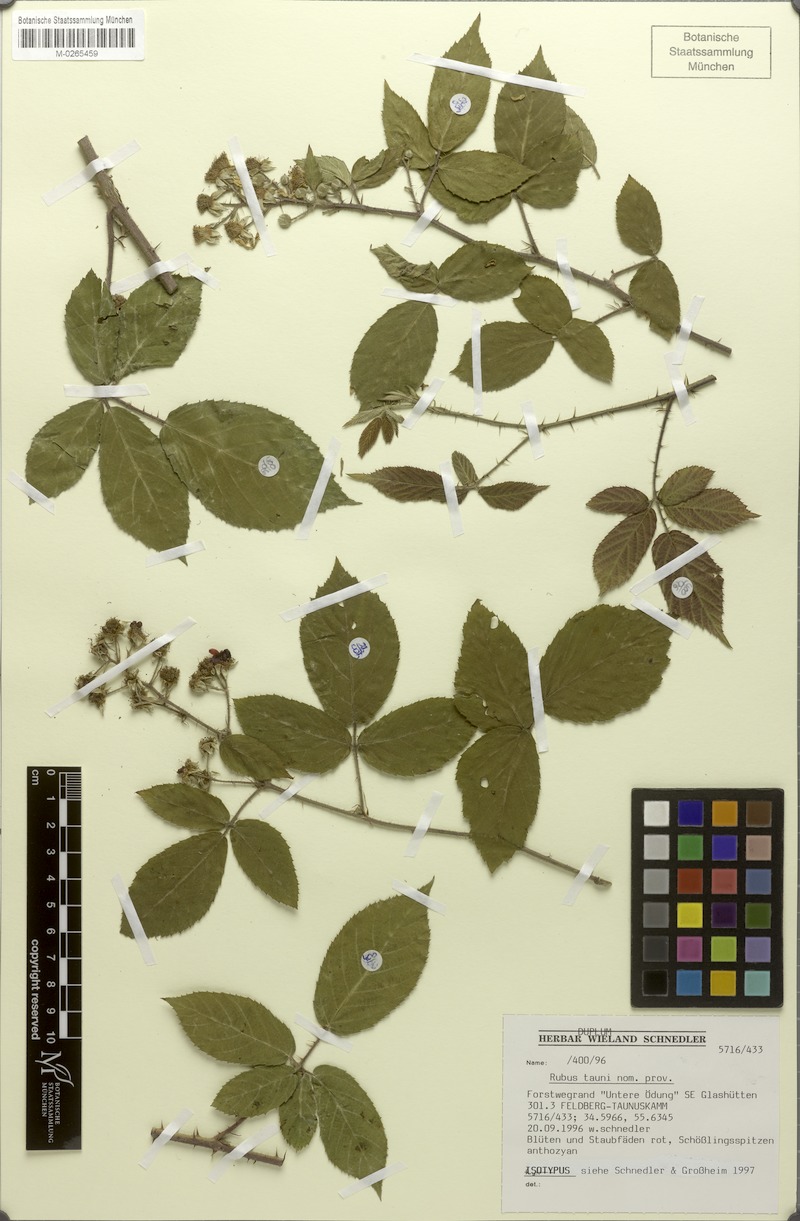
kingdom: Plantae
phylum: Tracheophyta
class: Magnoliopsida
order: Rosales
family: Rosaceae
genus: Rubus
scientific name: Rubus tauni
